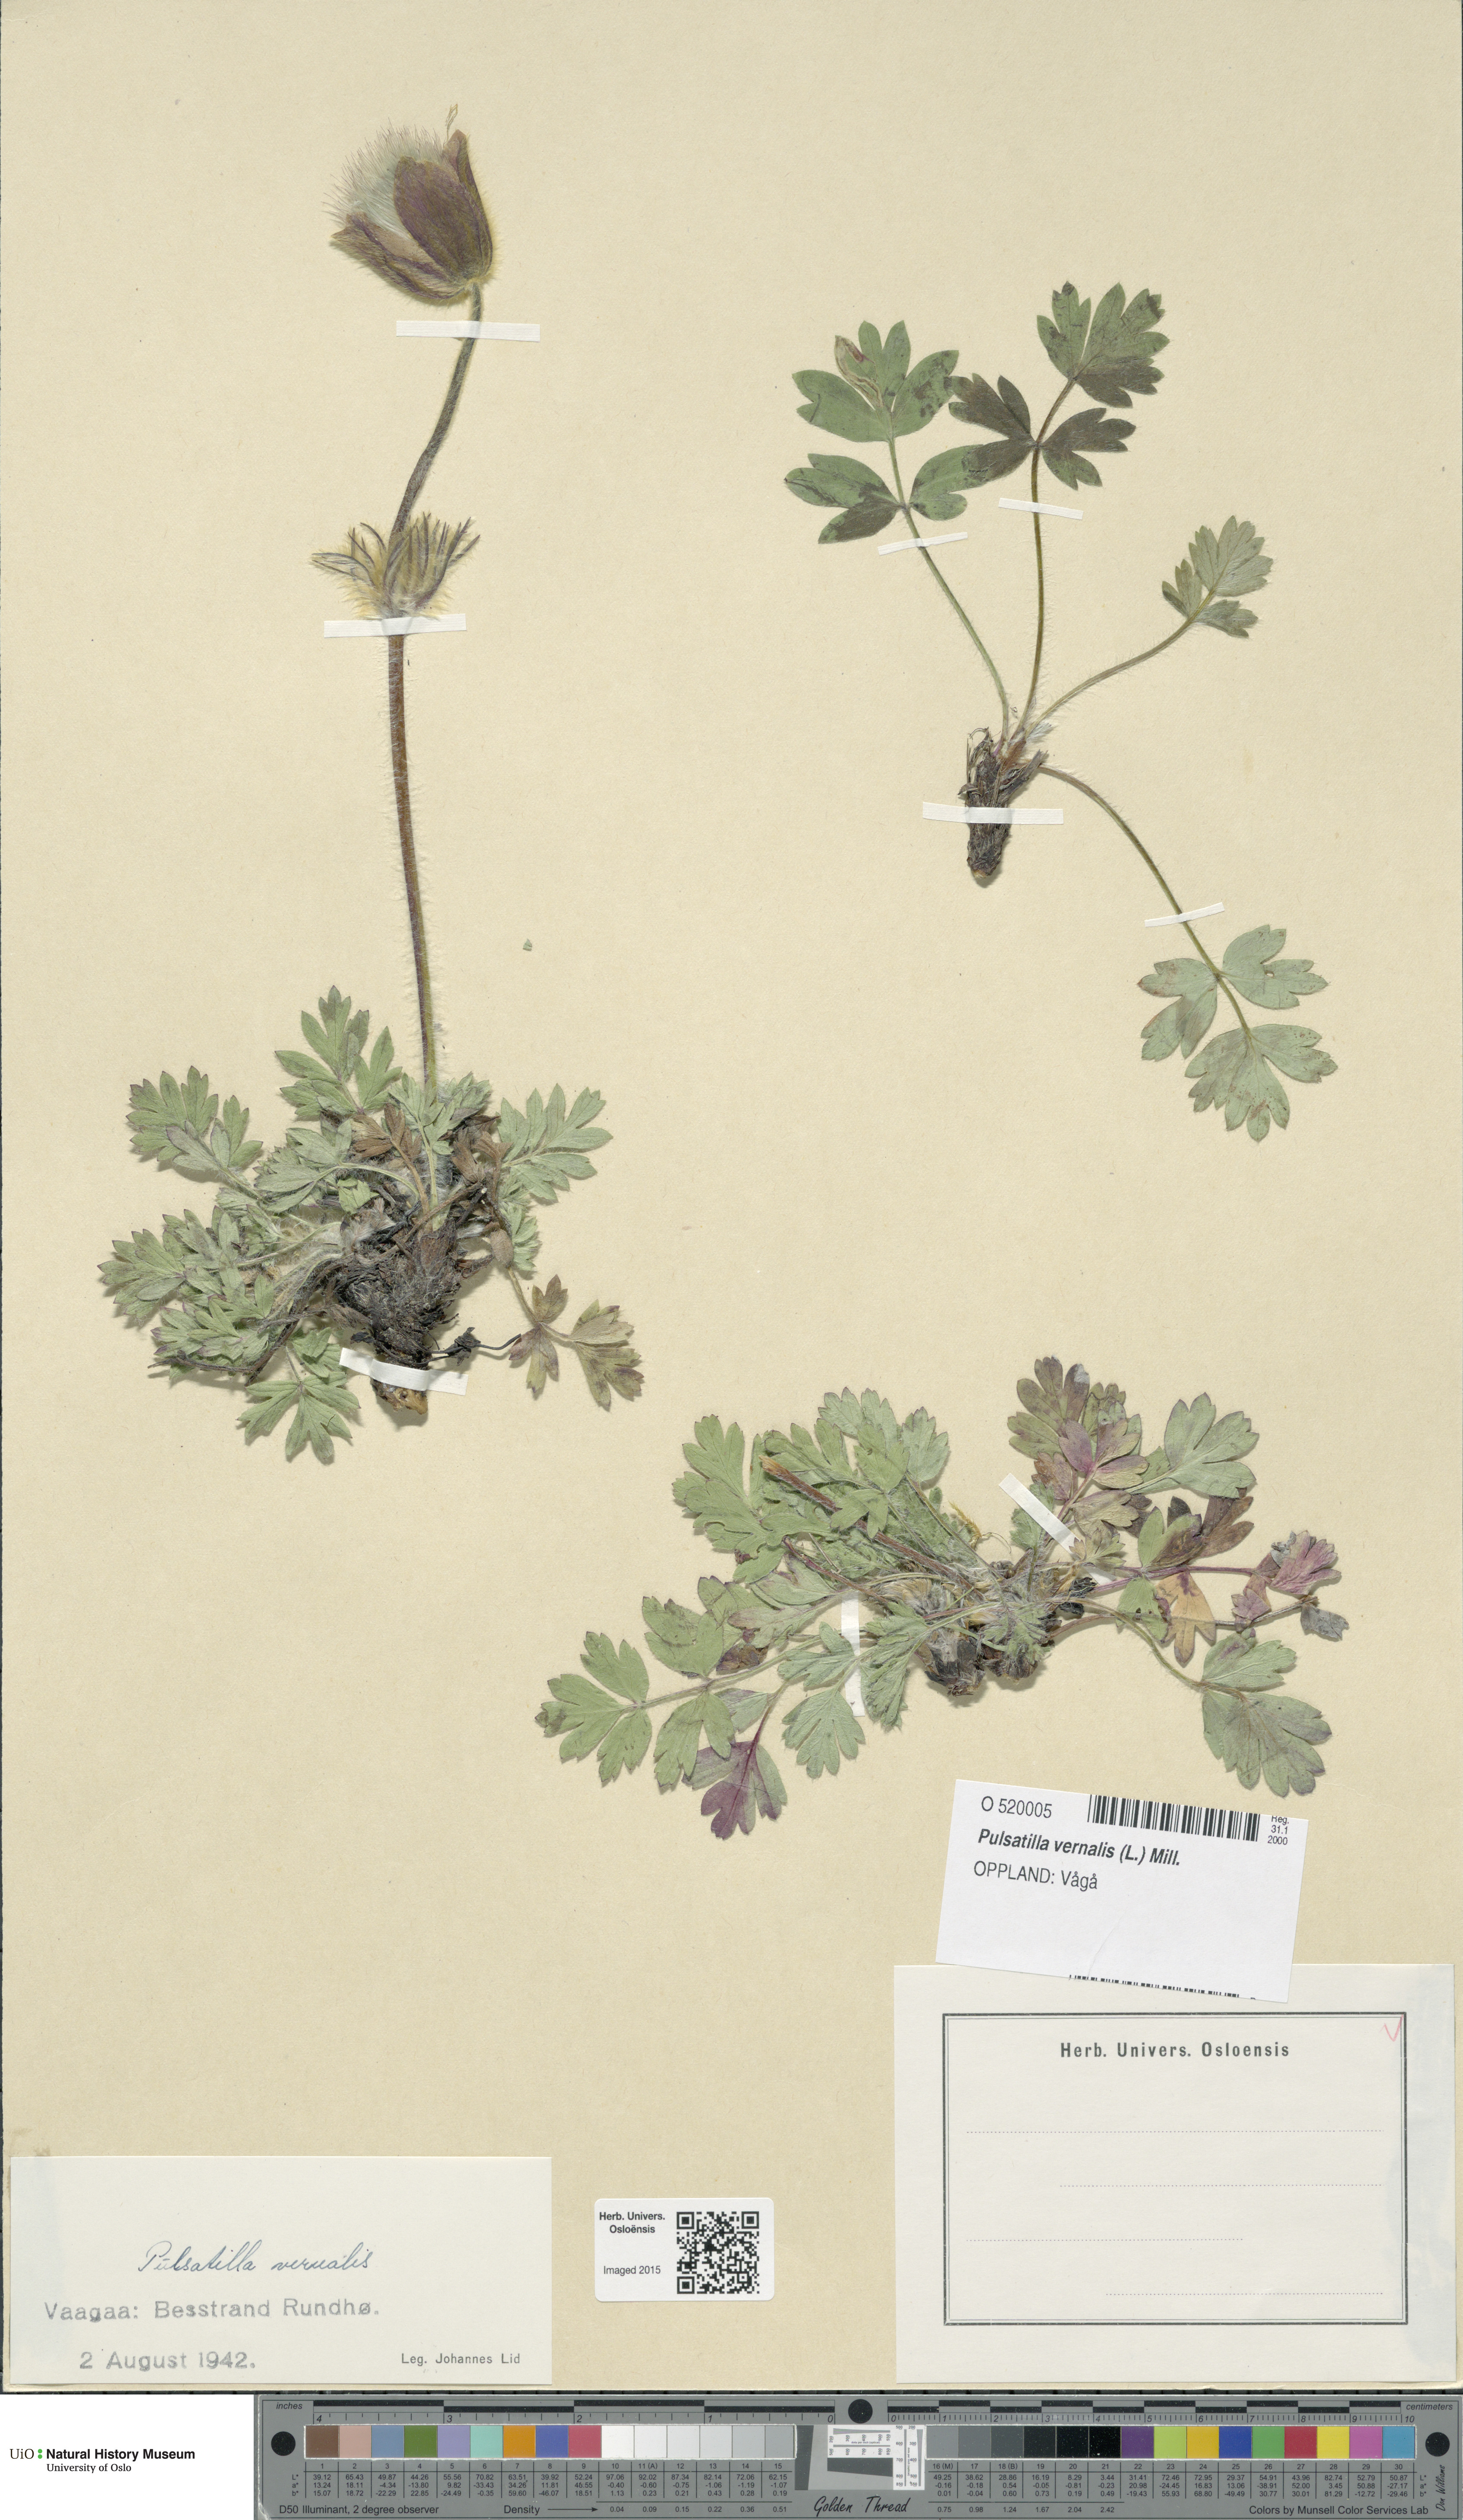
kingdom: Plantae
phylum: Tracheophyta
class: Magnoliopsida
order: Ranunculales
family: Ranunculaceae
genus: Pulsatilla
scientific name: Pulsatilla vernalis
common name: Spring pasque flower
